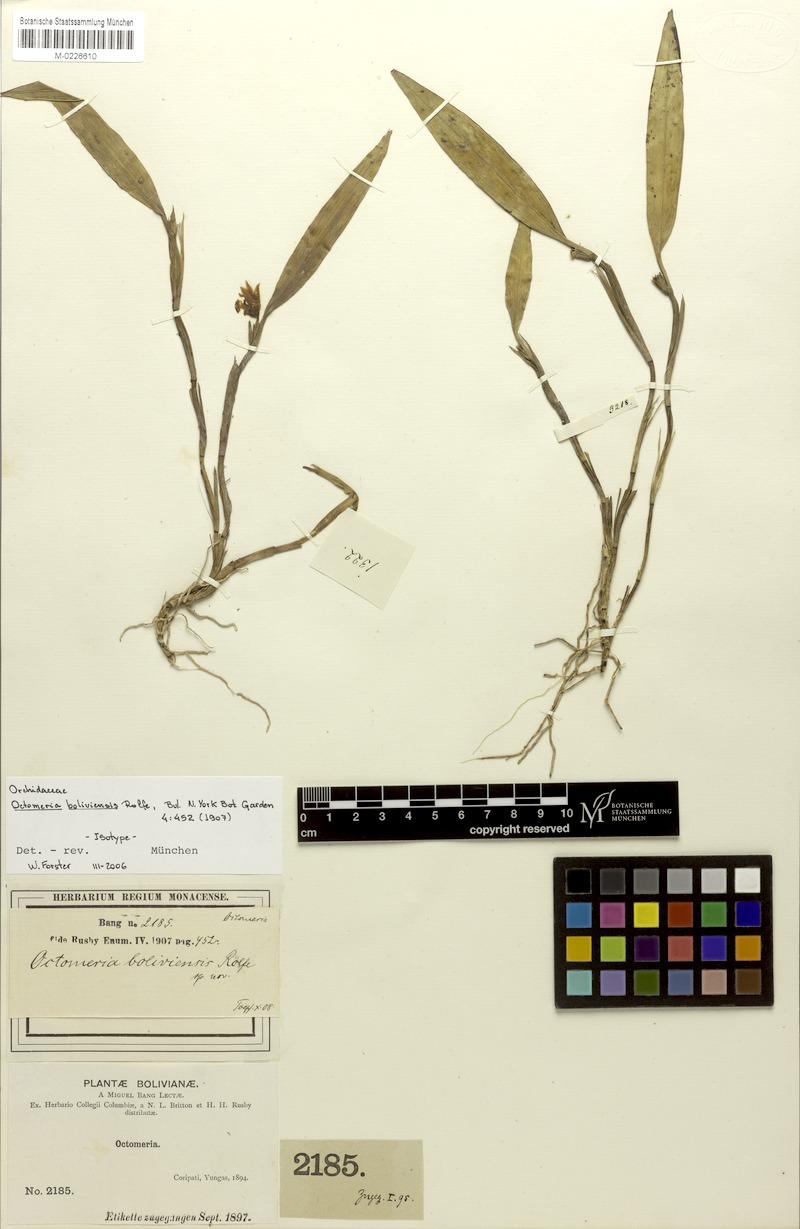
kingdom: Plantae
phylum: Tracheophyta
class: Liliopsida
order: Asparagales
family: Orchidaceae
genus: Octomeria
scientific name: Octomeria grandiflora
